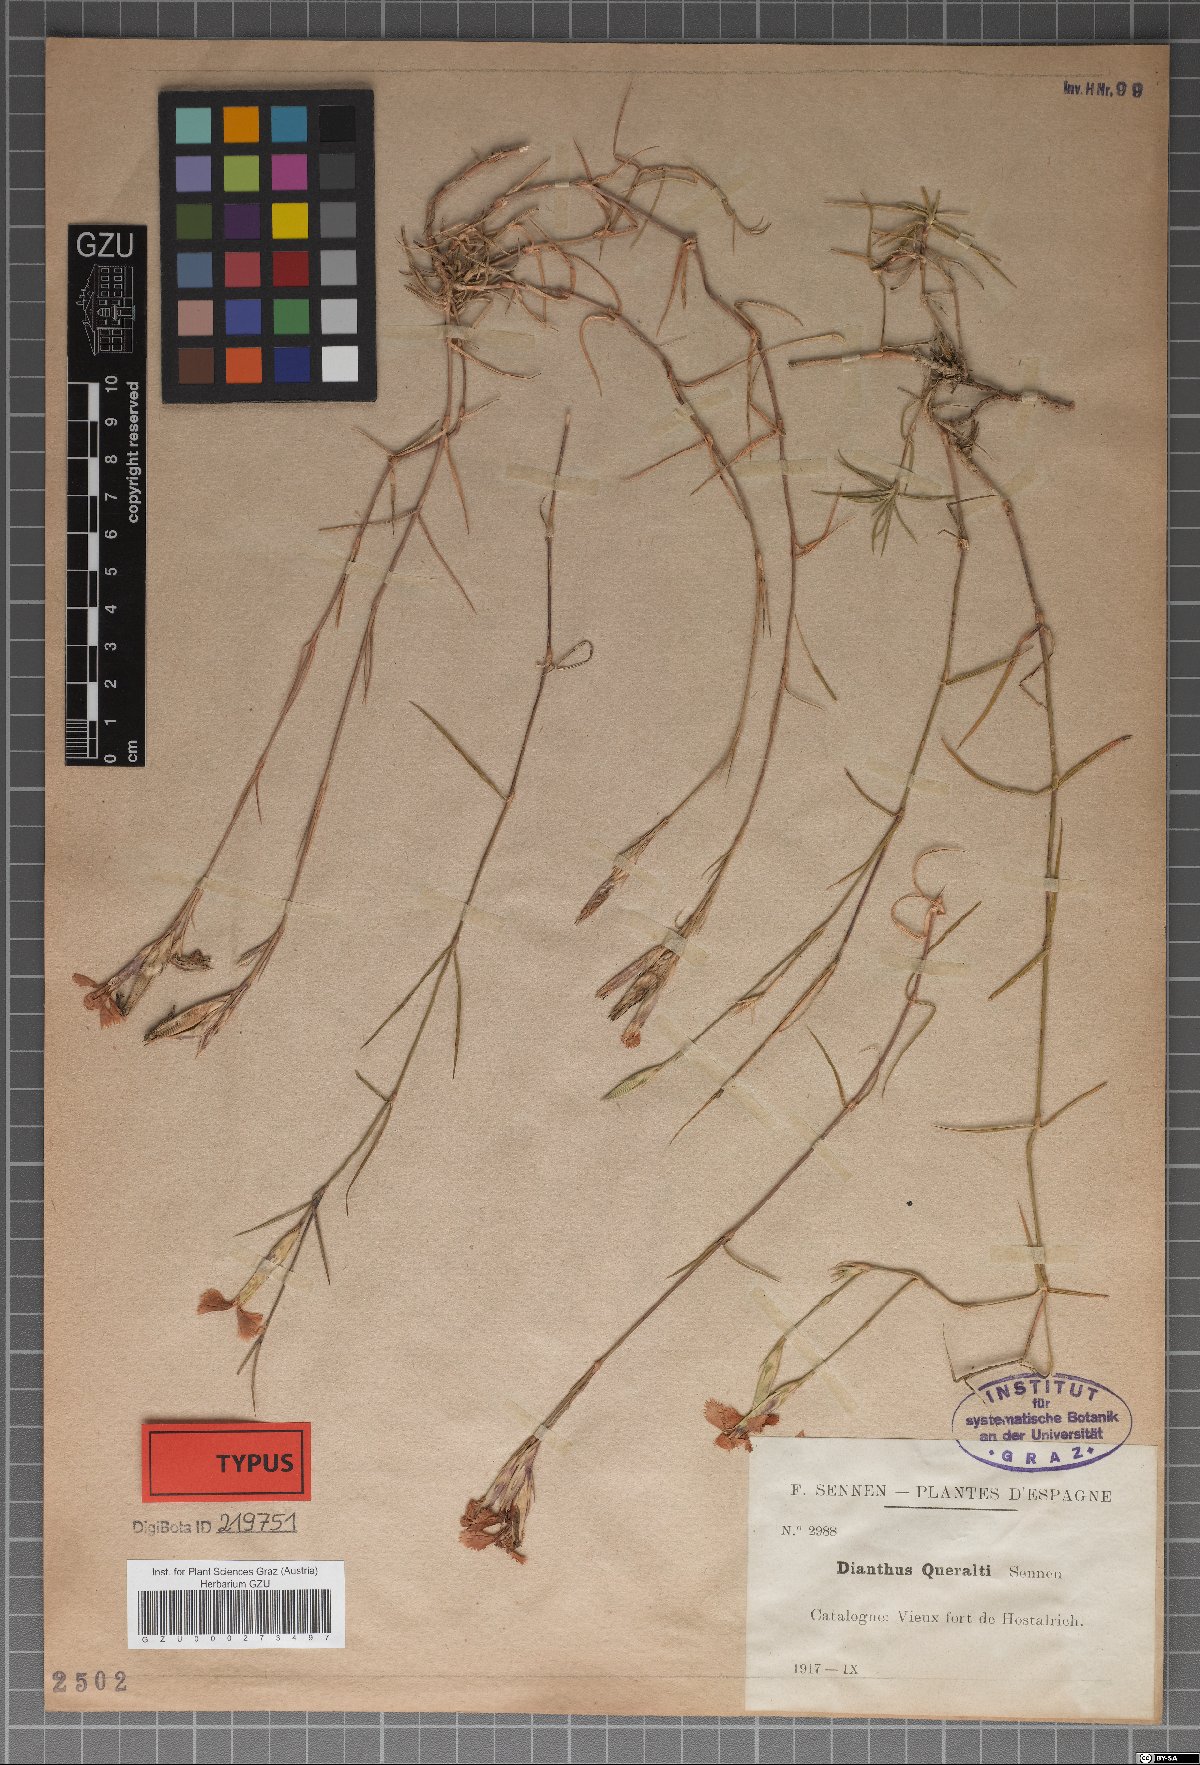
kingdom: Plantae
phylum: Tracheophyta
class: Magnoliopsida
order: Caryophyllales
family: Caryophyllaceae
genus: Dianthus
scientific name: Dianthus seguieri
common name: Ragged pink
